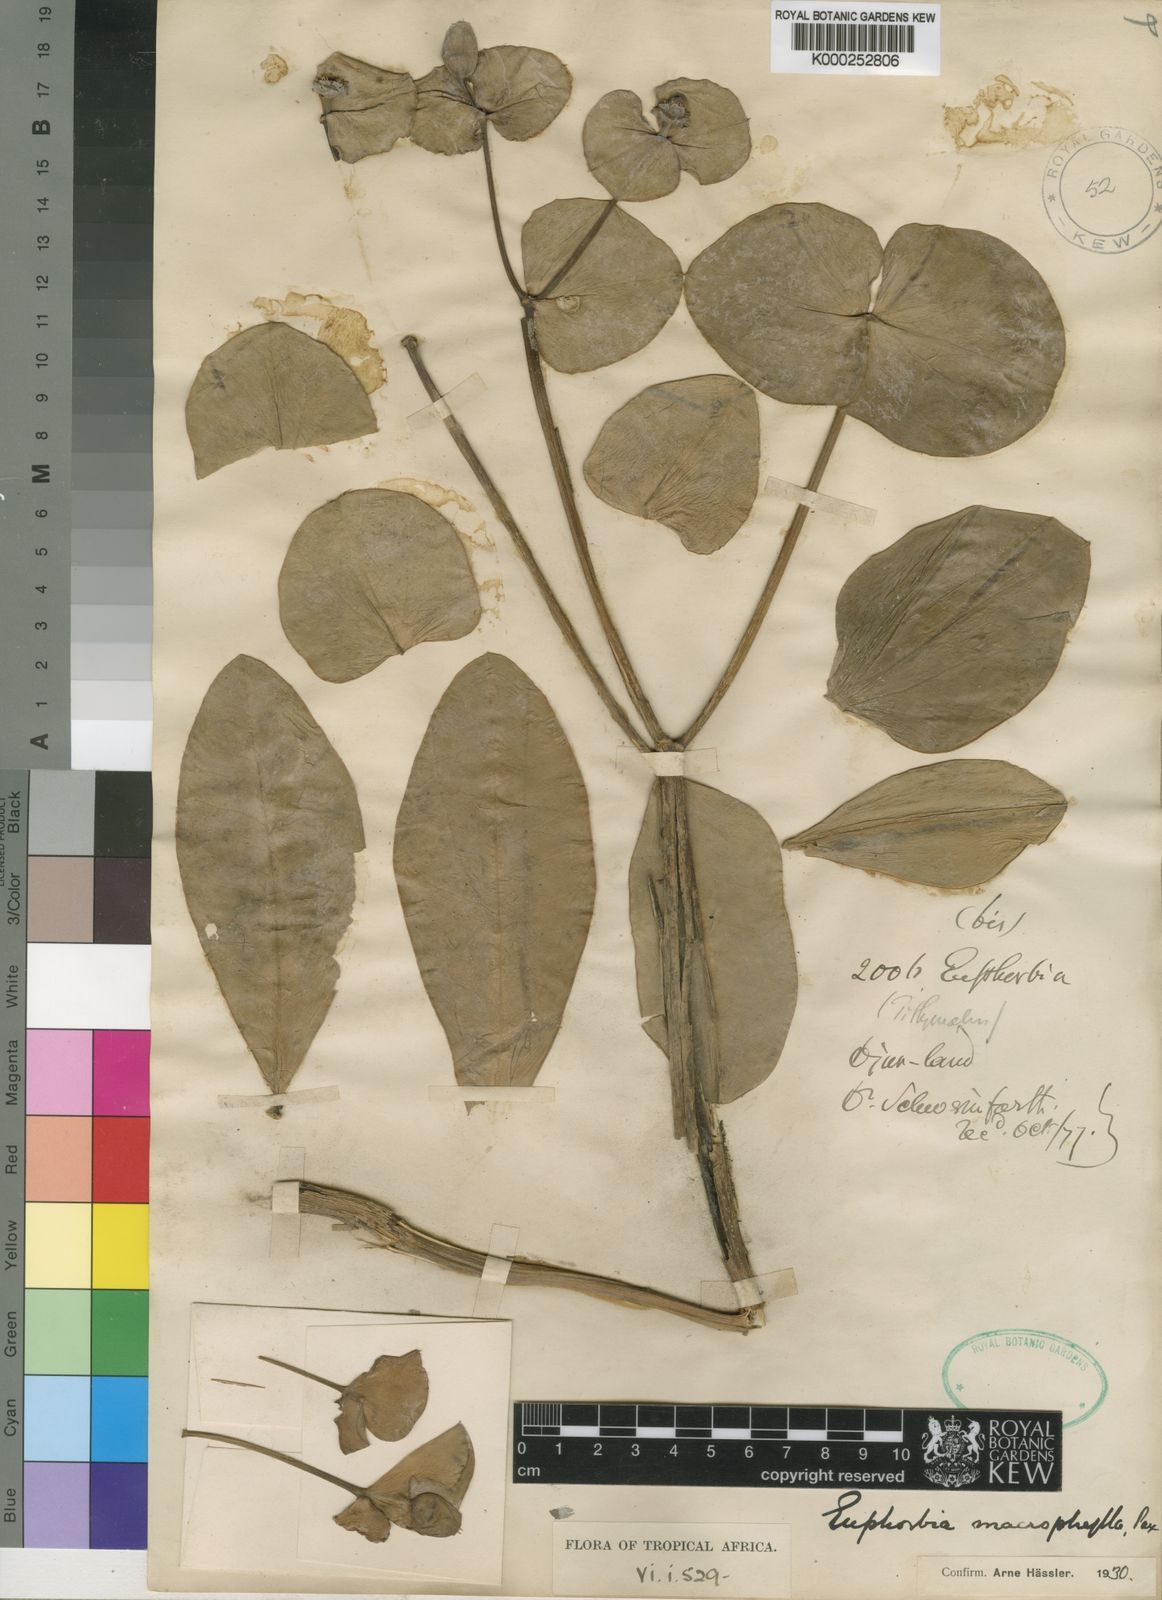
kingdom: Plantae
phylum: Tracheophyta
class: Magnoliopsida
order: Malpighiales
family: Euphorbiaceae
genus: Euphorbia
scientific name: Euphorbia macrophylla
